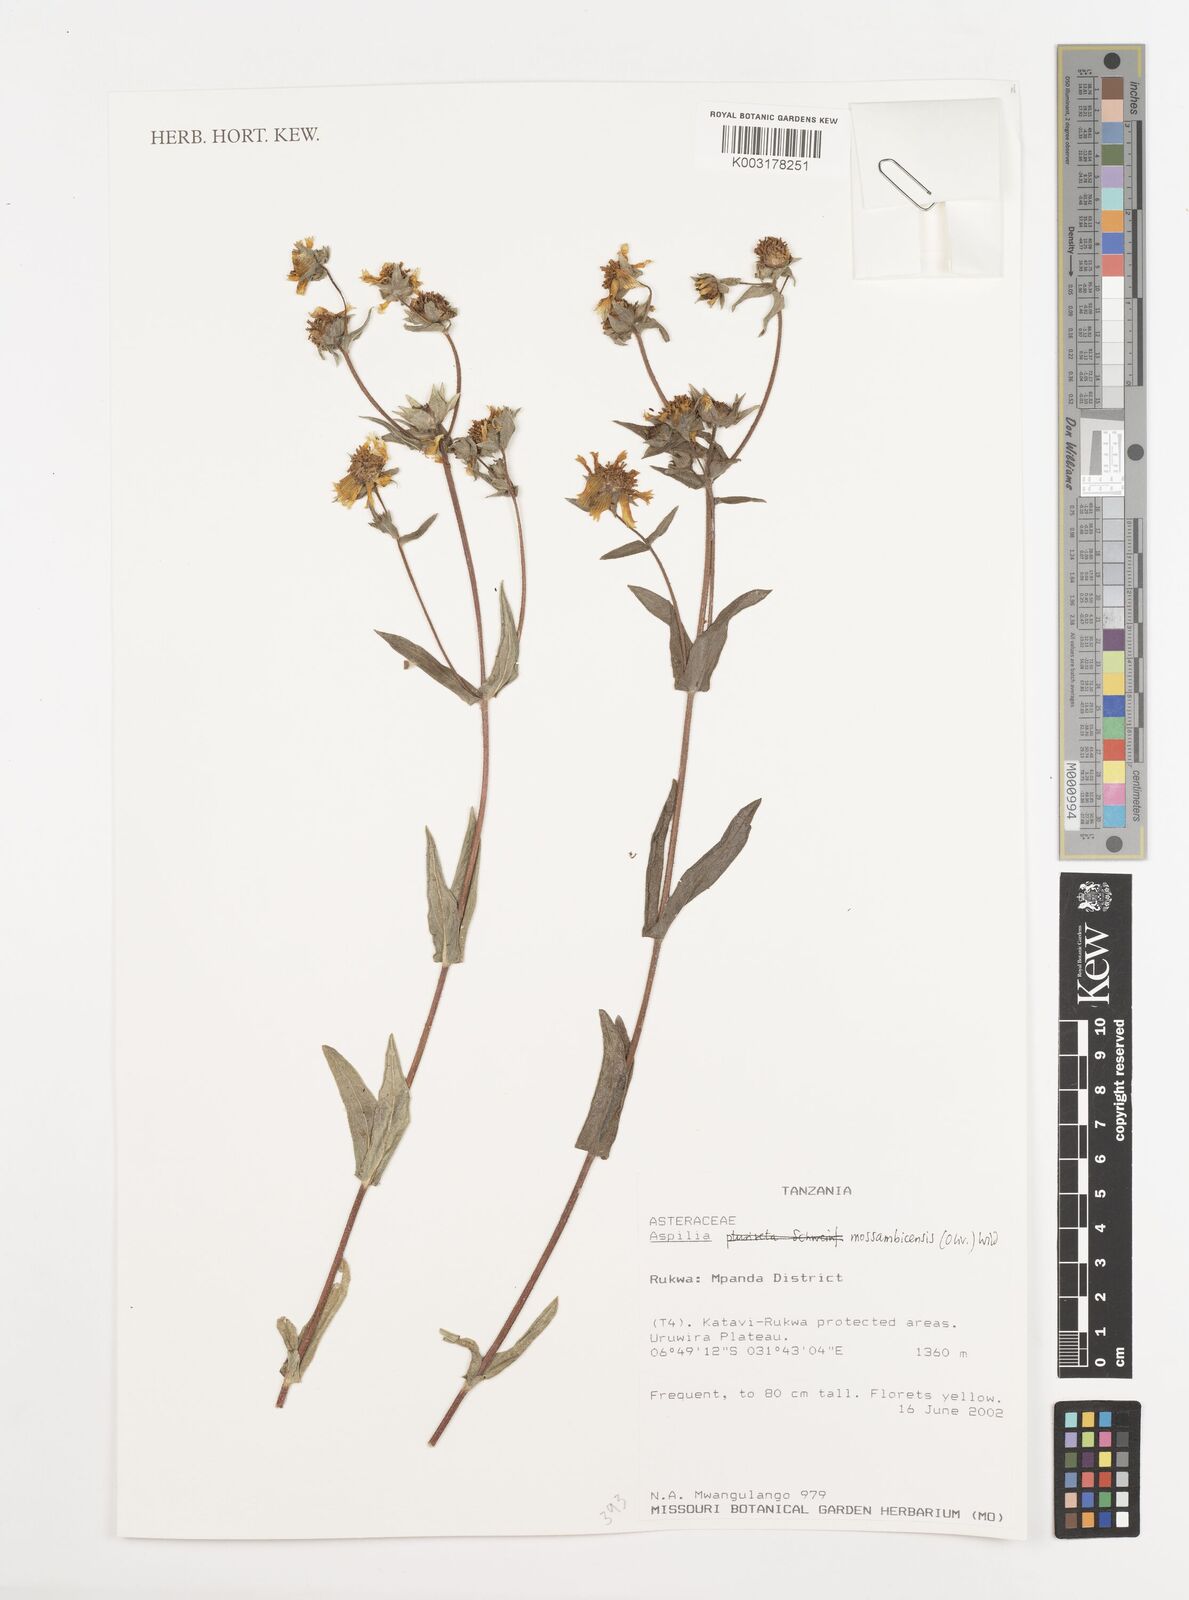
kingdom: Plantae
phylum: Tracheophyta
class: Magnoliopsida
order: Asterales
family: Asteraceae
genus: Aspilia
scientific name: Aspilia mossambicensis
